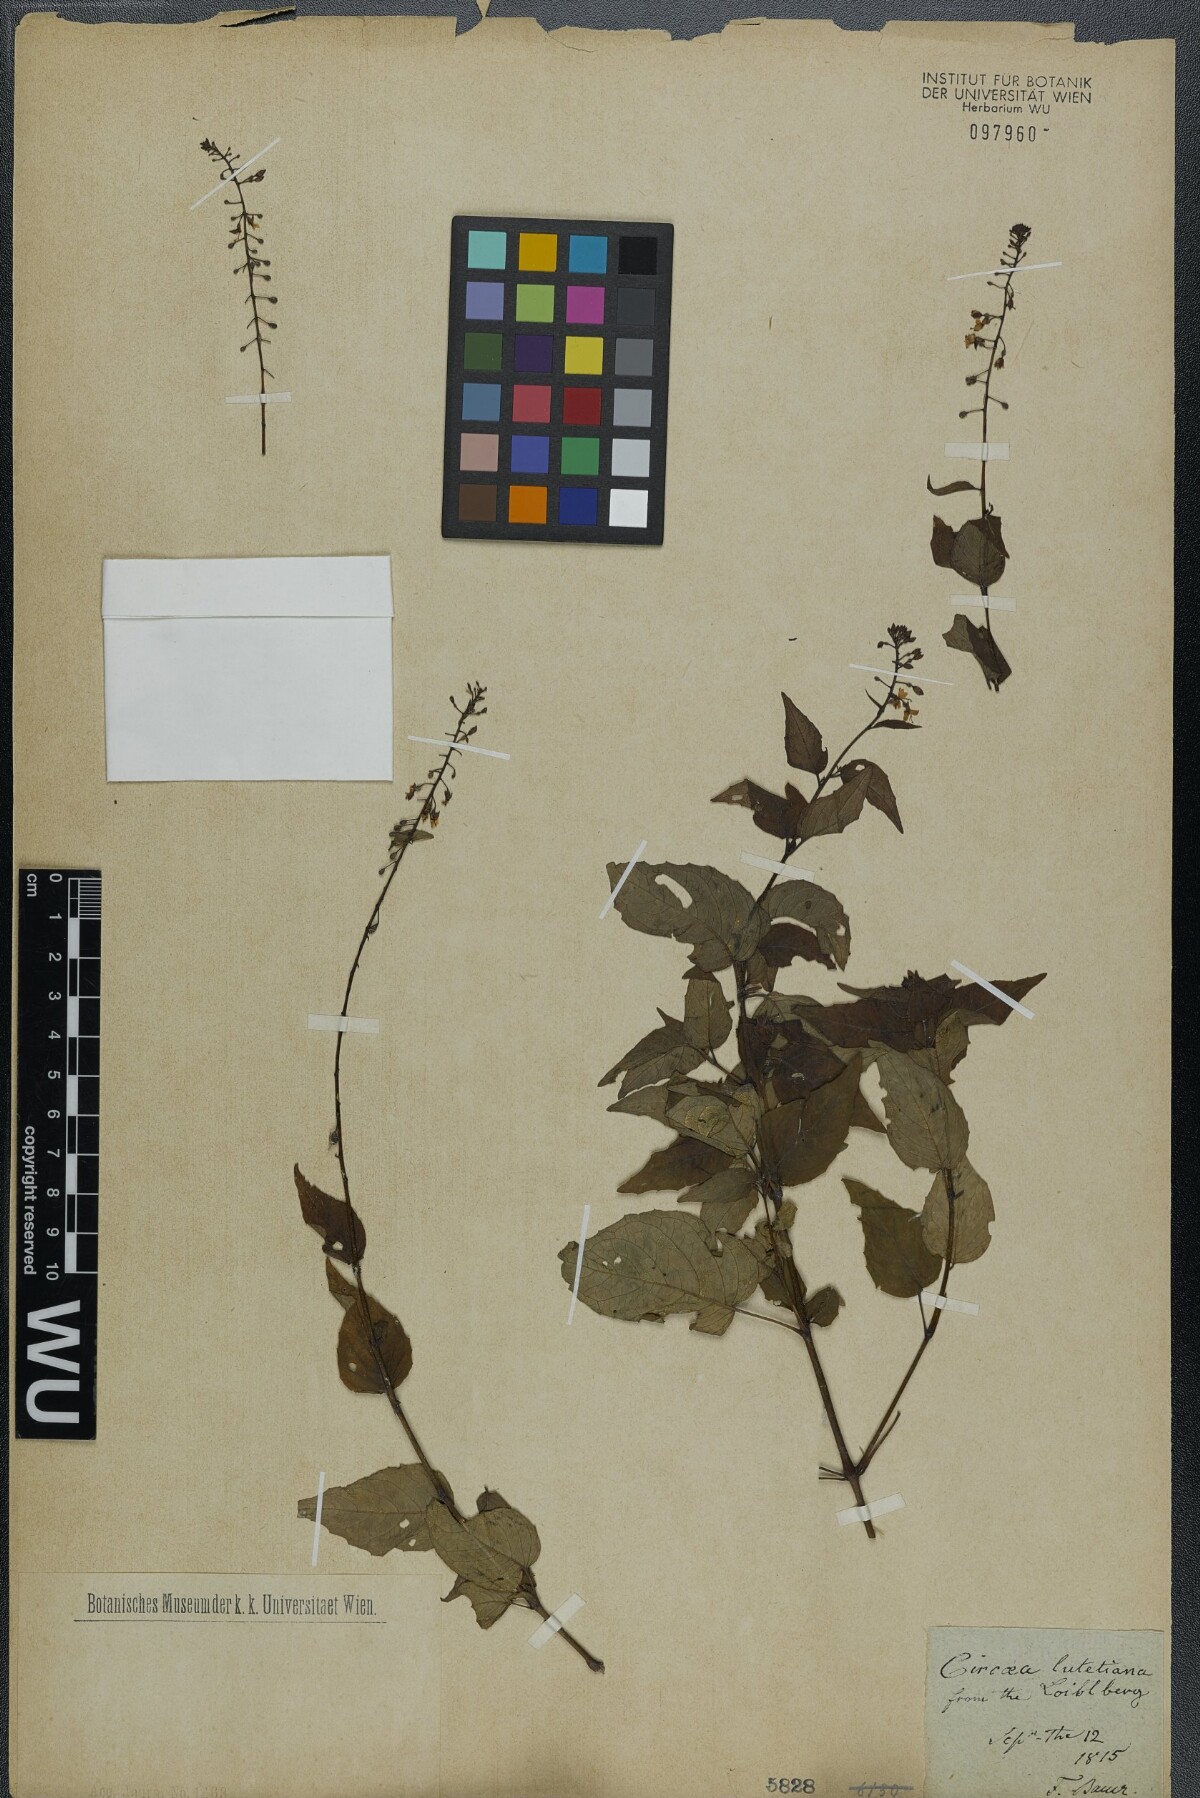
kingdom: Plantae
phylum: Tracheophyta
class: Magnoliopsida
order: Myrtales
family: Onagraceae
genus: Circaea
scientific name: Circaea lutetiana
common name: Enchanter's-nightshade
